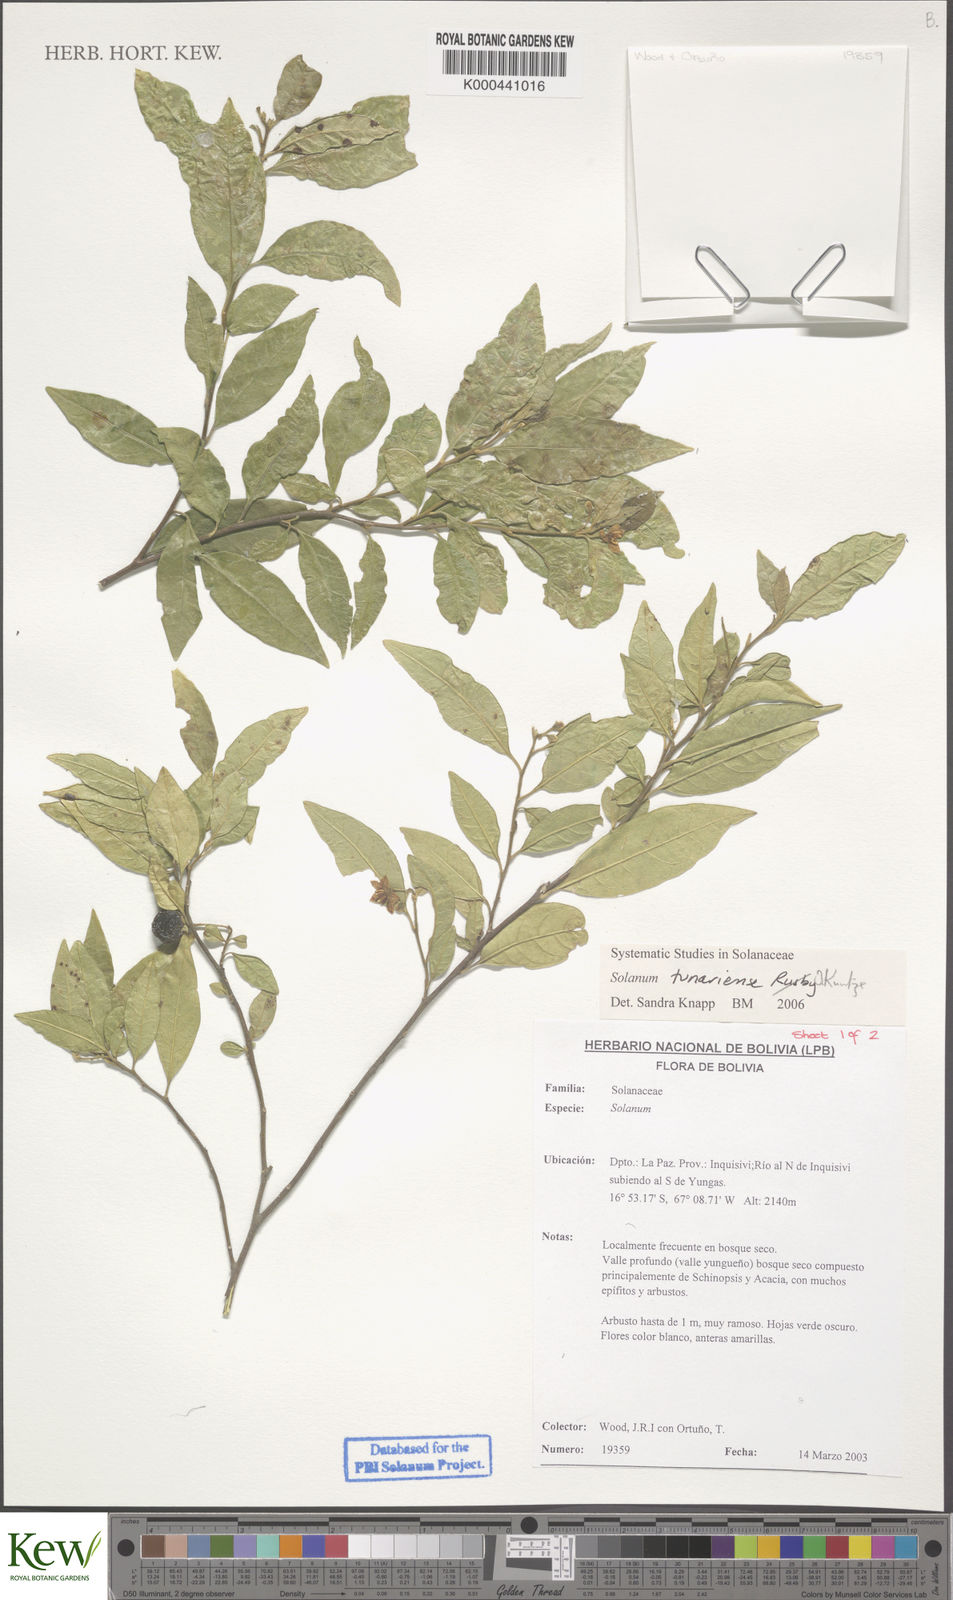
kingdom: Plantae
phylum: Tracheophyta
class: Magnoliopsida
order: Solanales
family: Solanaceae
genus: Solanum
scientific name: Solanum tunariense
